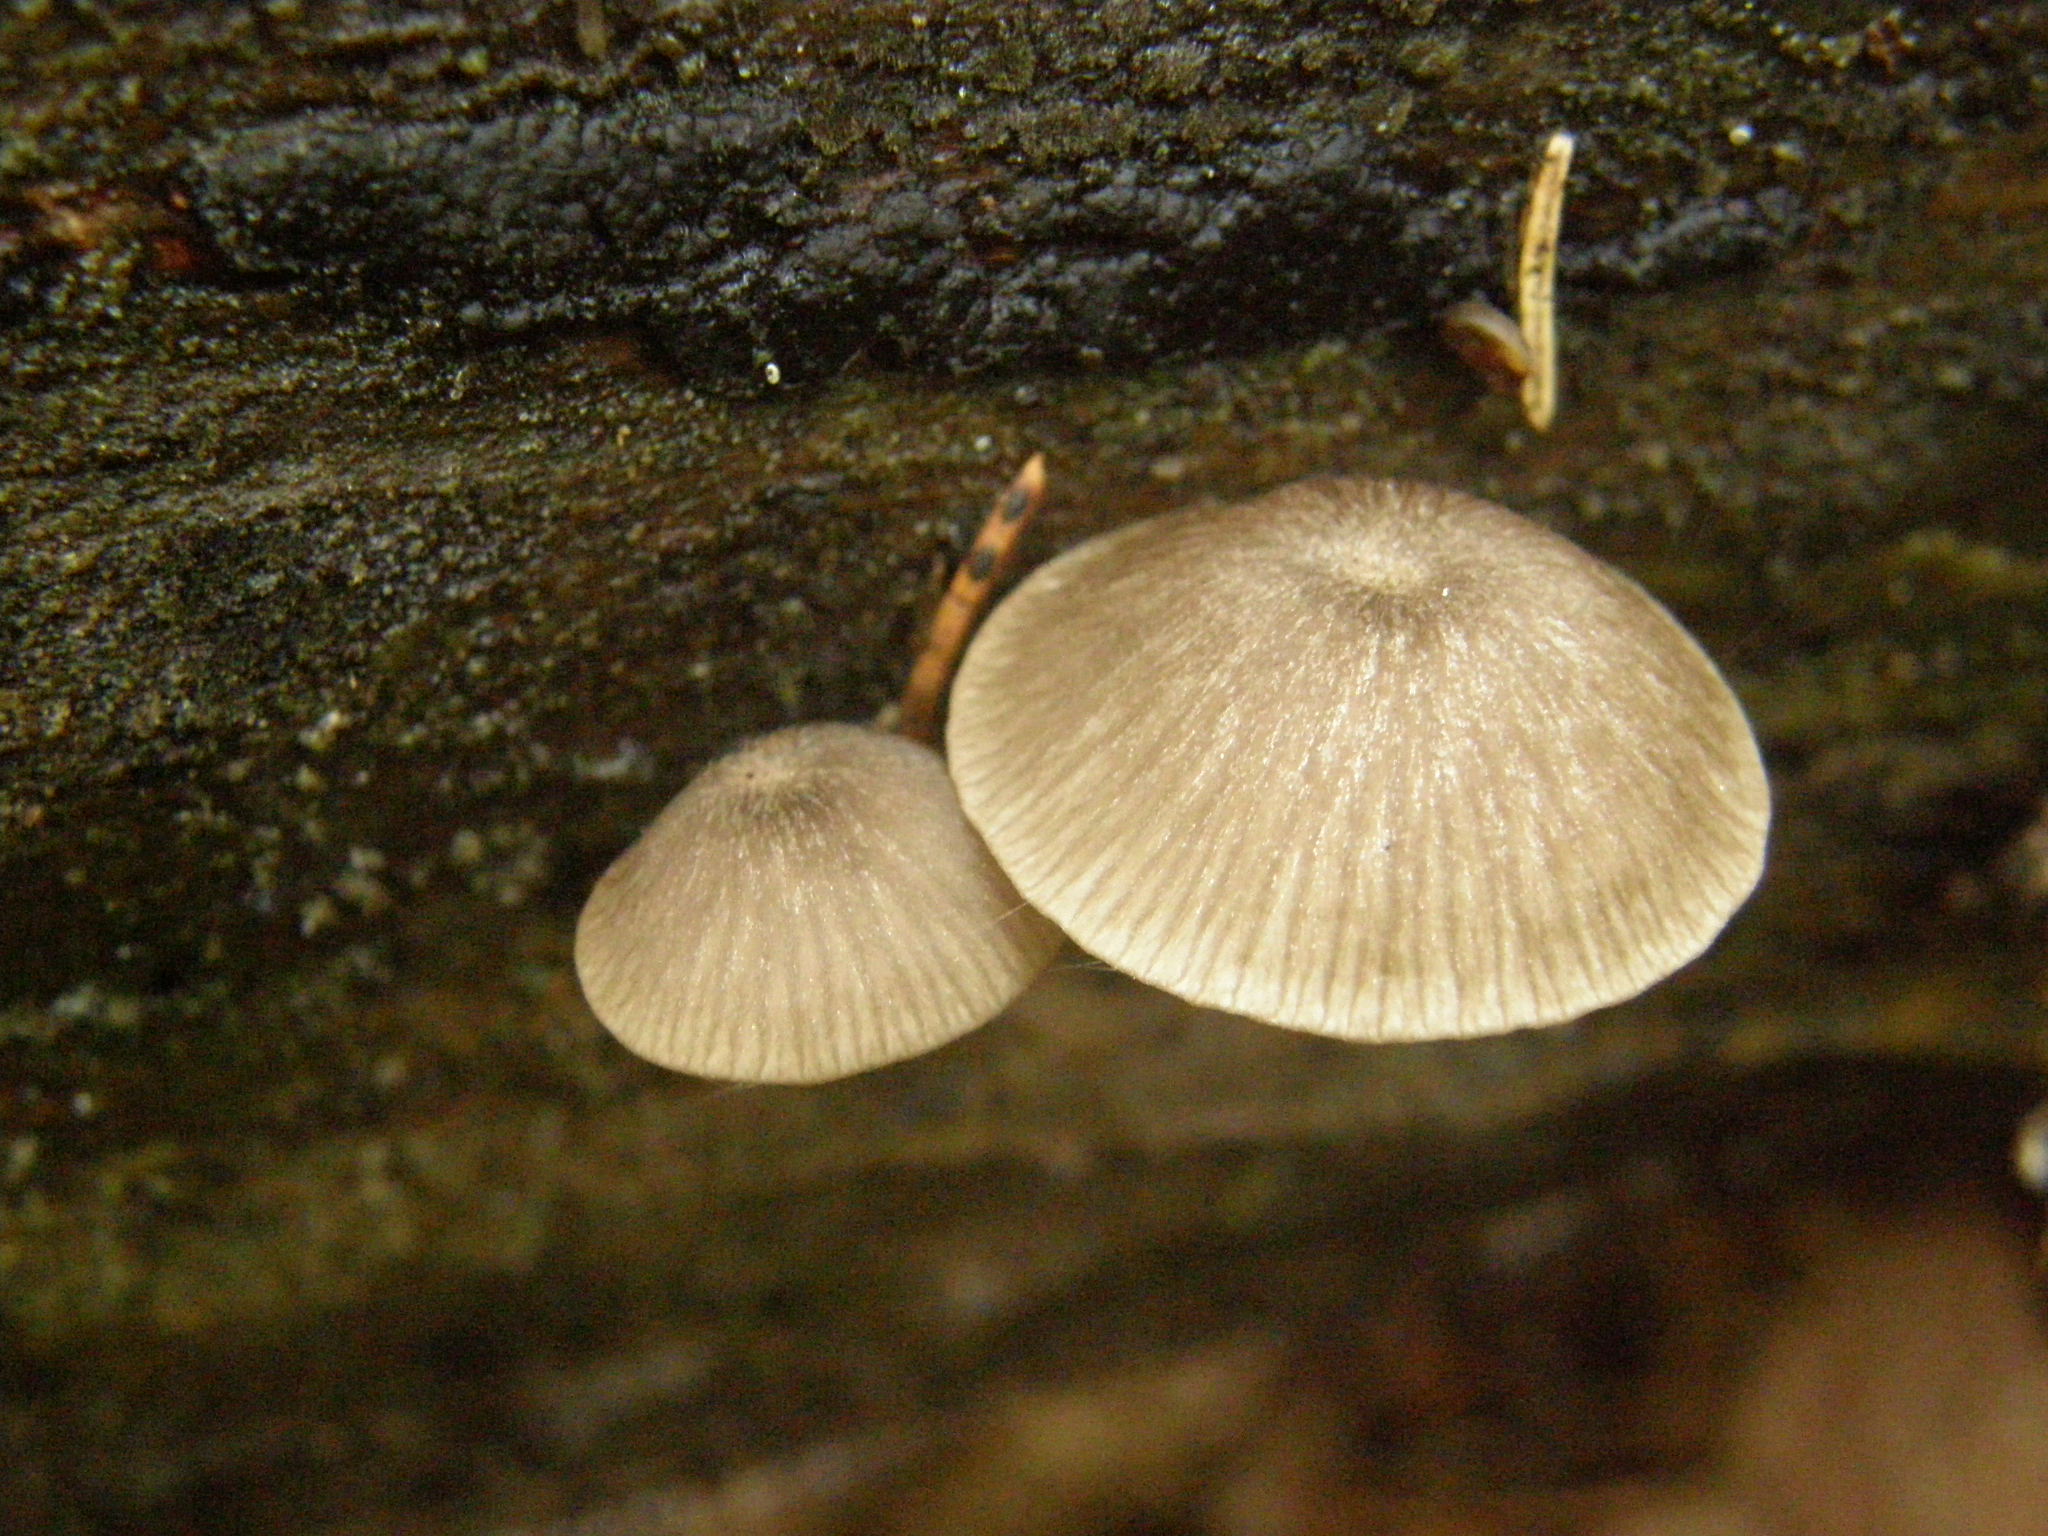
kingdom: Fungi
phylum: Basidiomycota
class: Agaricomycetes
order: Agaricales
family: Hygrophoraceae
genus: Arrhenia
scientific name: Arrhenia epichysium
